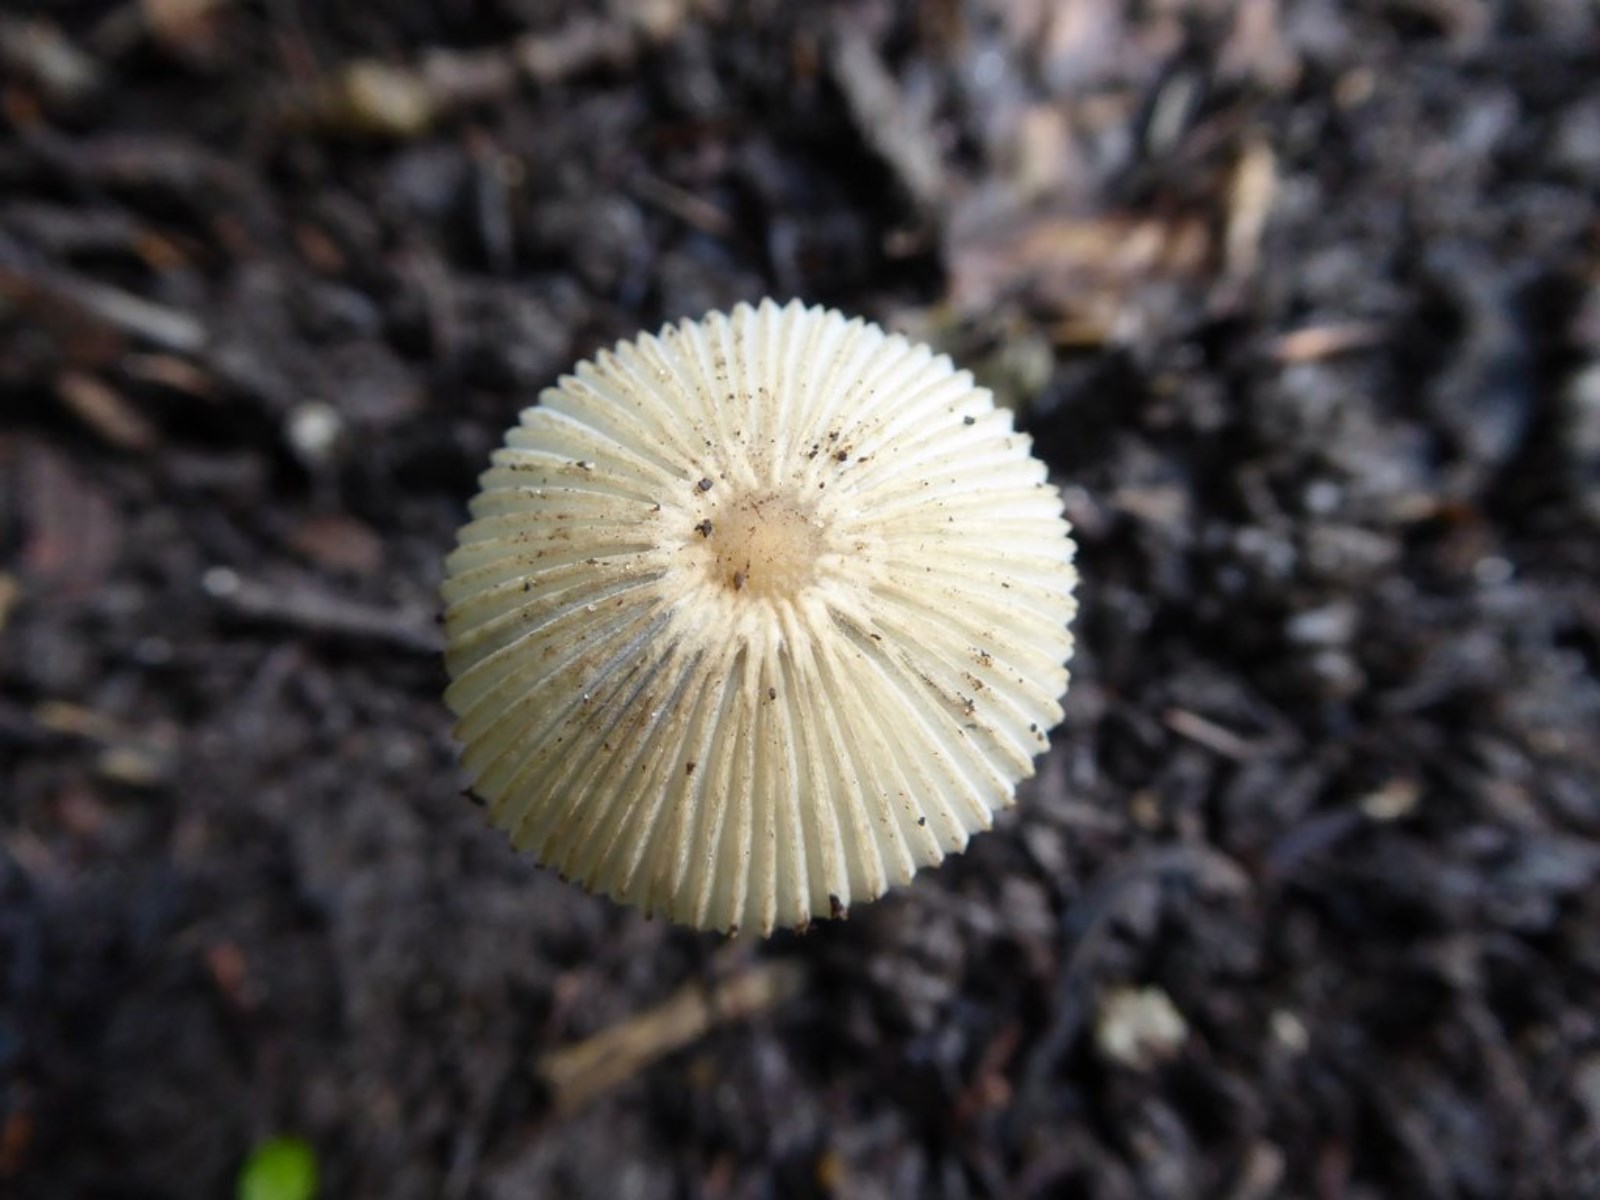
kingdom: Fungi
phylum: Basidiomycota
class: Agaricomycetes
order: Agaricales
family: Psathyrellaceae
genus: Parasola
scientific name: Parasola
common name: hjulhat
